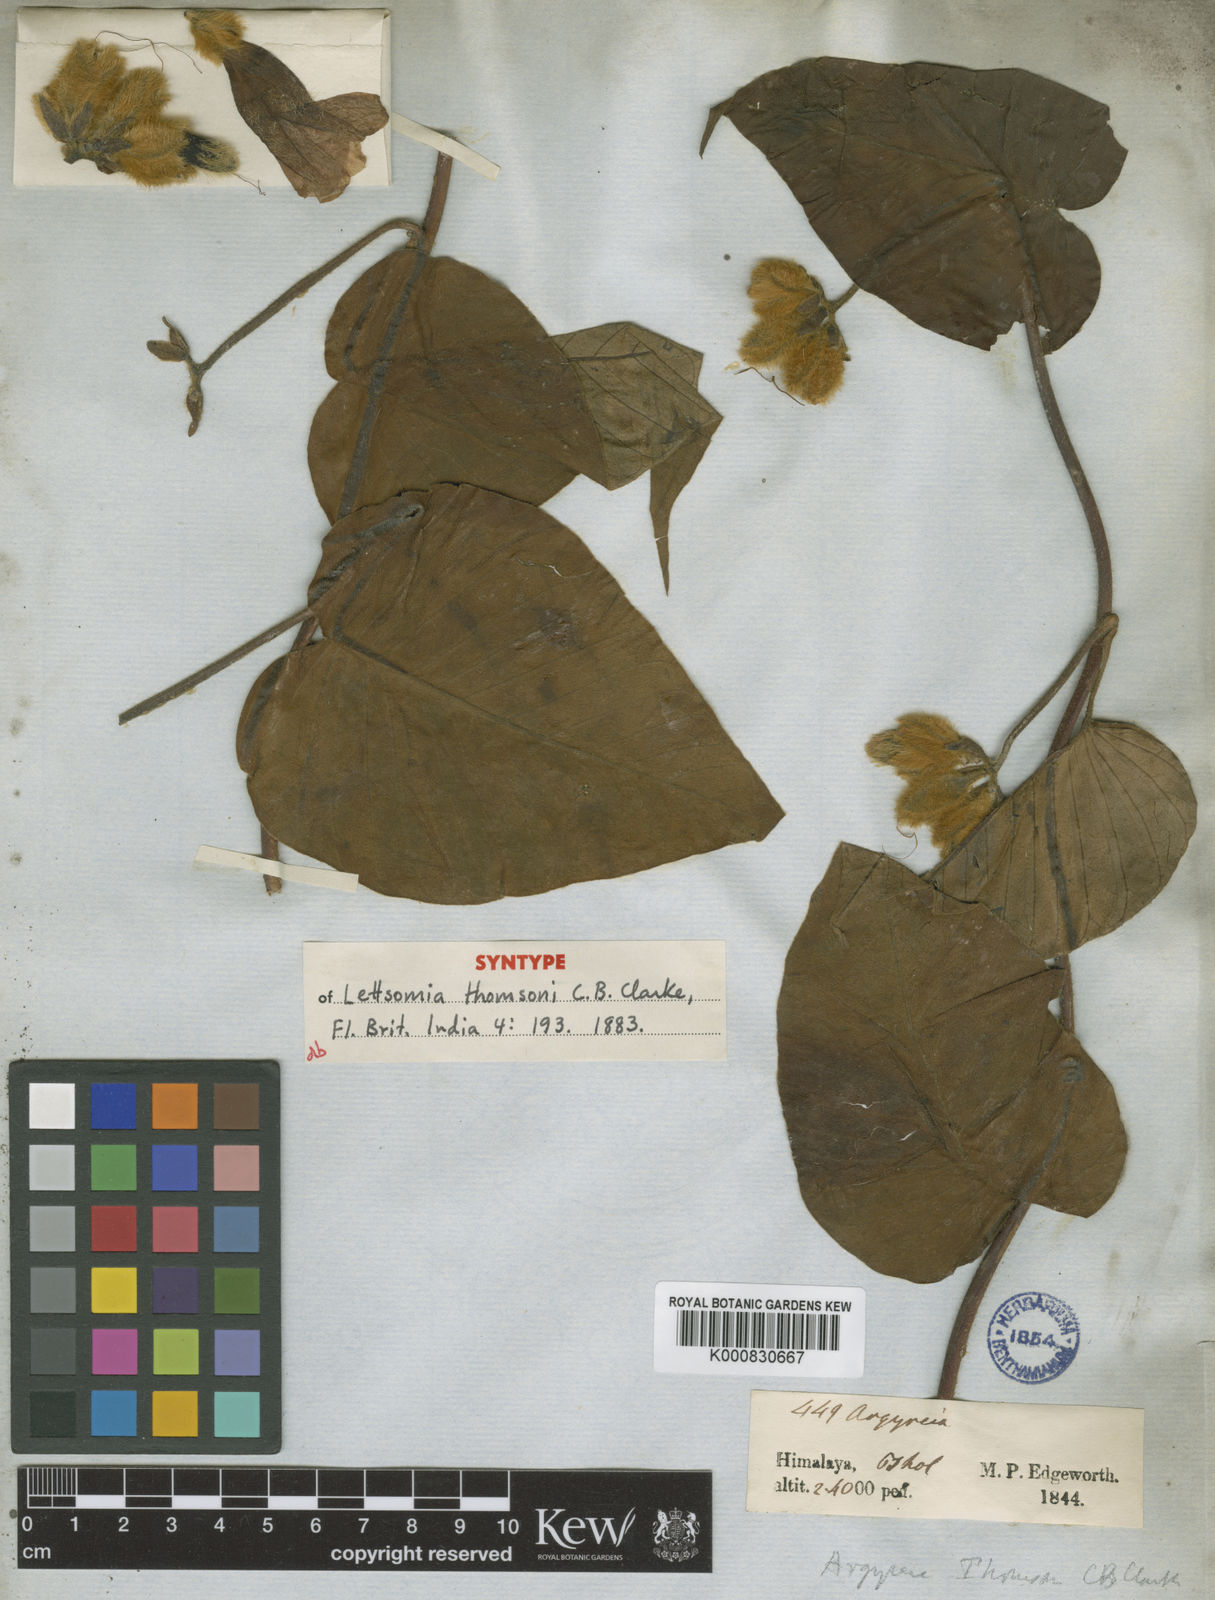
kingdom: Plantae
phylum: Tracheophyta
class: Magnoliopsida
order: Solanales
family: Convolvulaceae
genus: Argyreia
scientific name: Argyreia thomsonii
